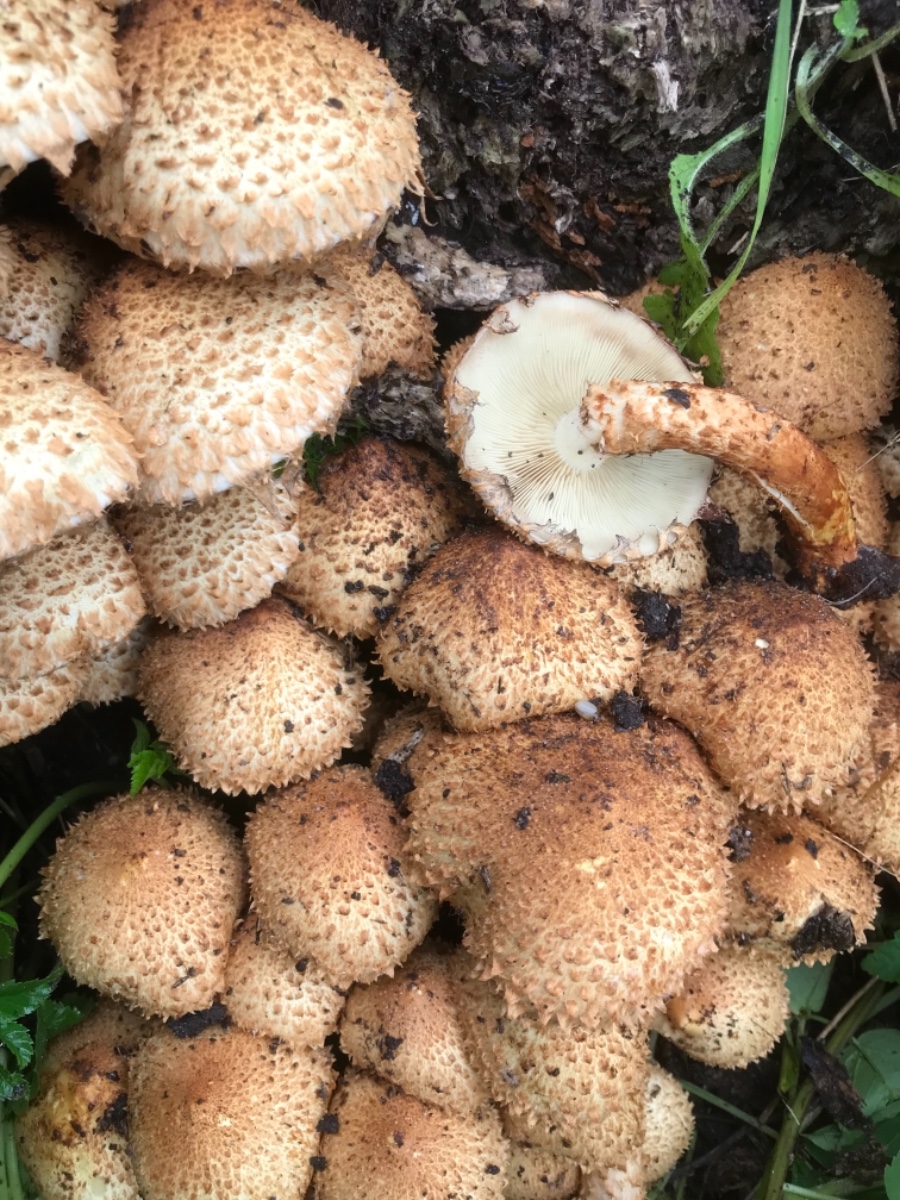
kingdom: Fungi
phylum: Basidiomycota
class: Agaricomycetes
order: Agaricales
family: Strophariaceae
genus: Pholiota
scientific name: Pholiota squarrosa
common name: krumskællet skælhat
